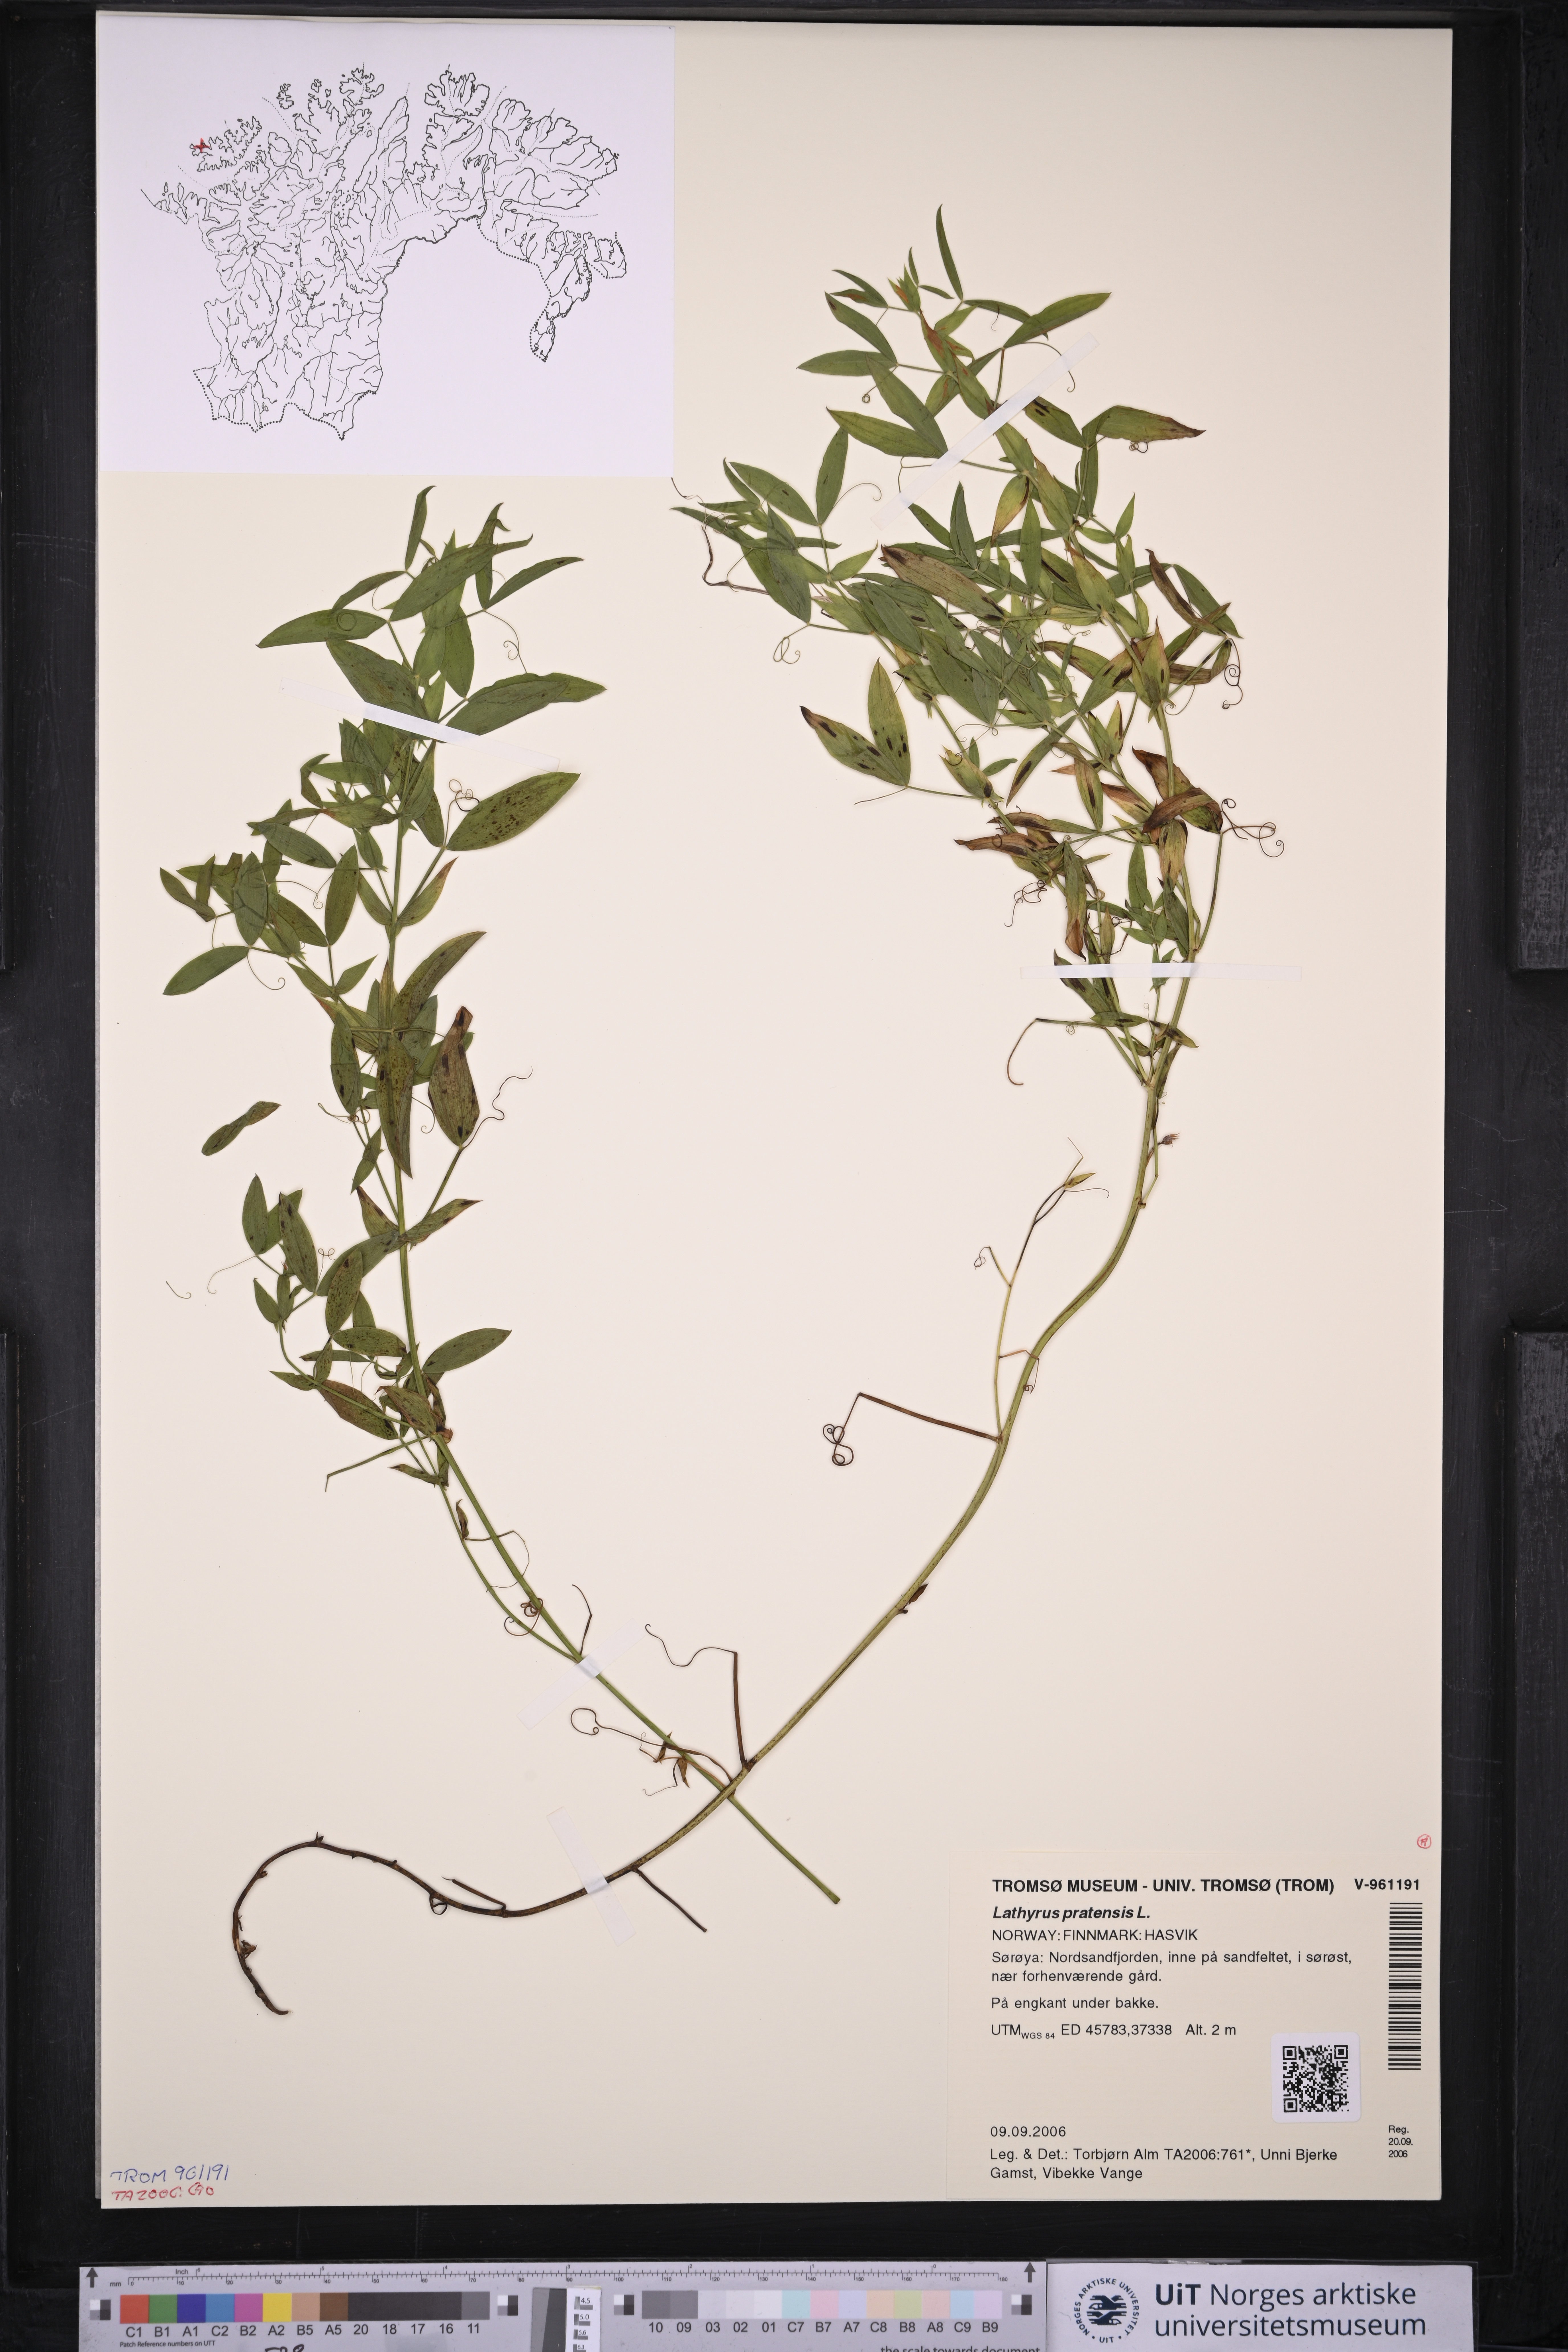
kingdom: Plantae
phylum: Tracheophyta
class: Magnoliopsida
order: Fabales
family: Fabaceae
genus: Lathyrus
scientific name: Lathyrus pratensis
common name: Meadow vetchling
